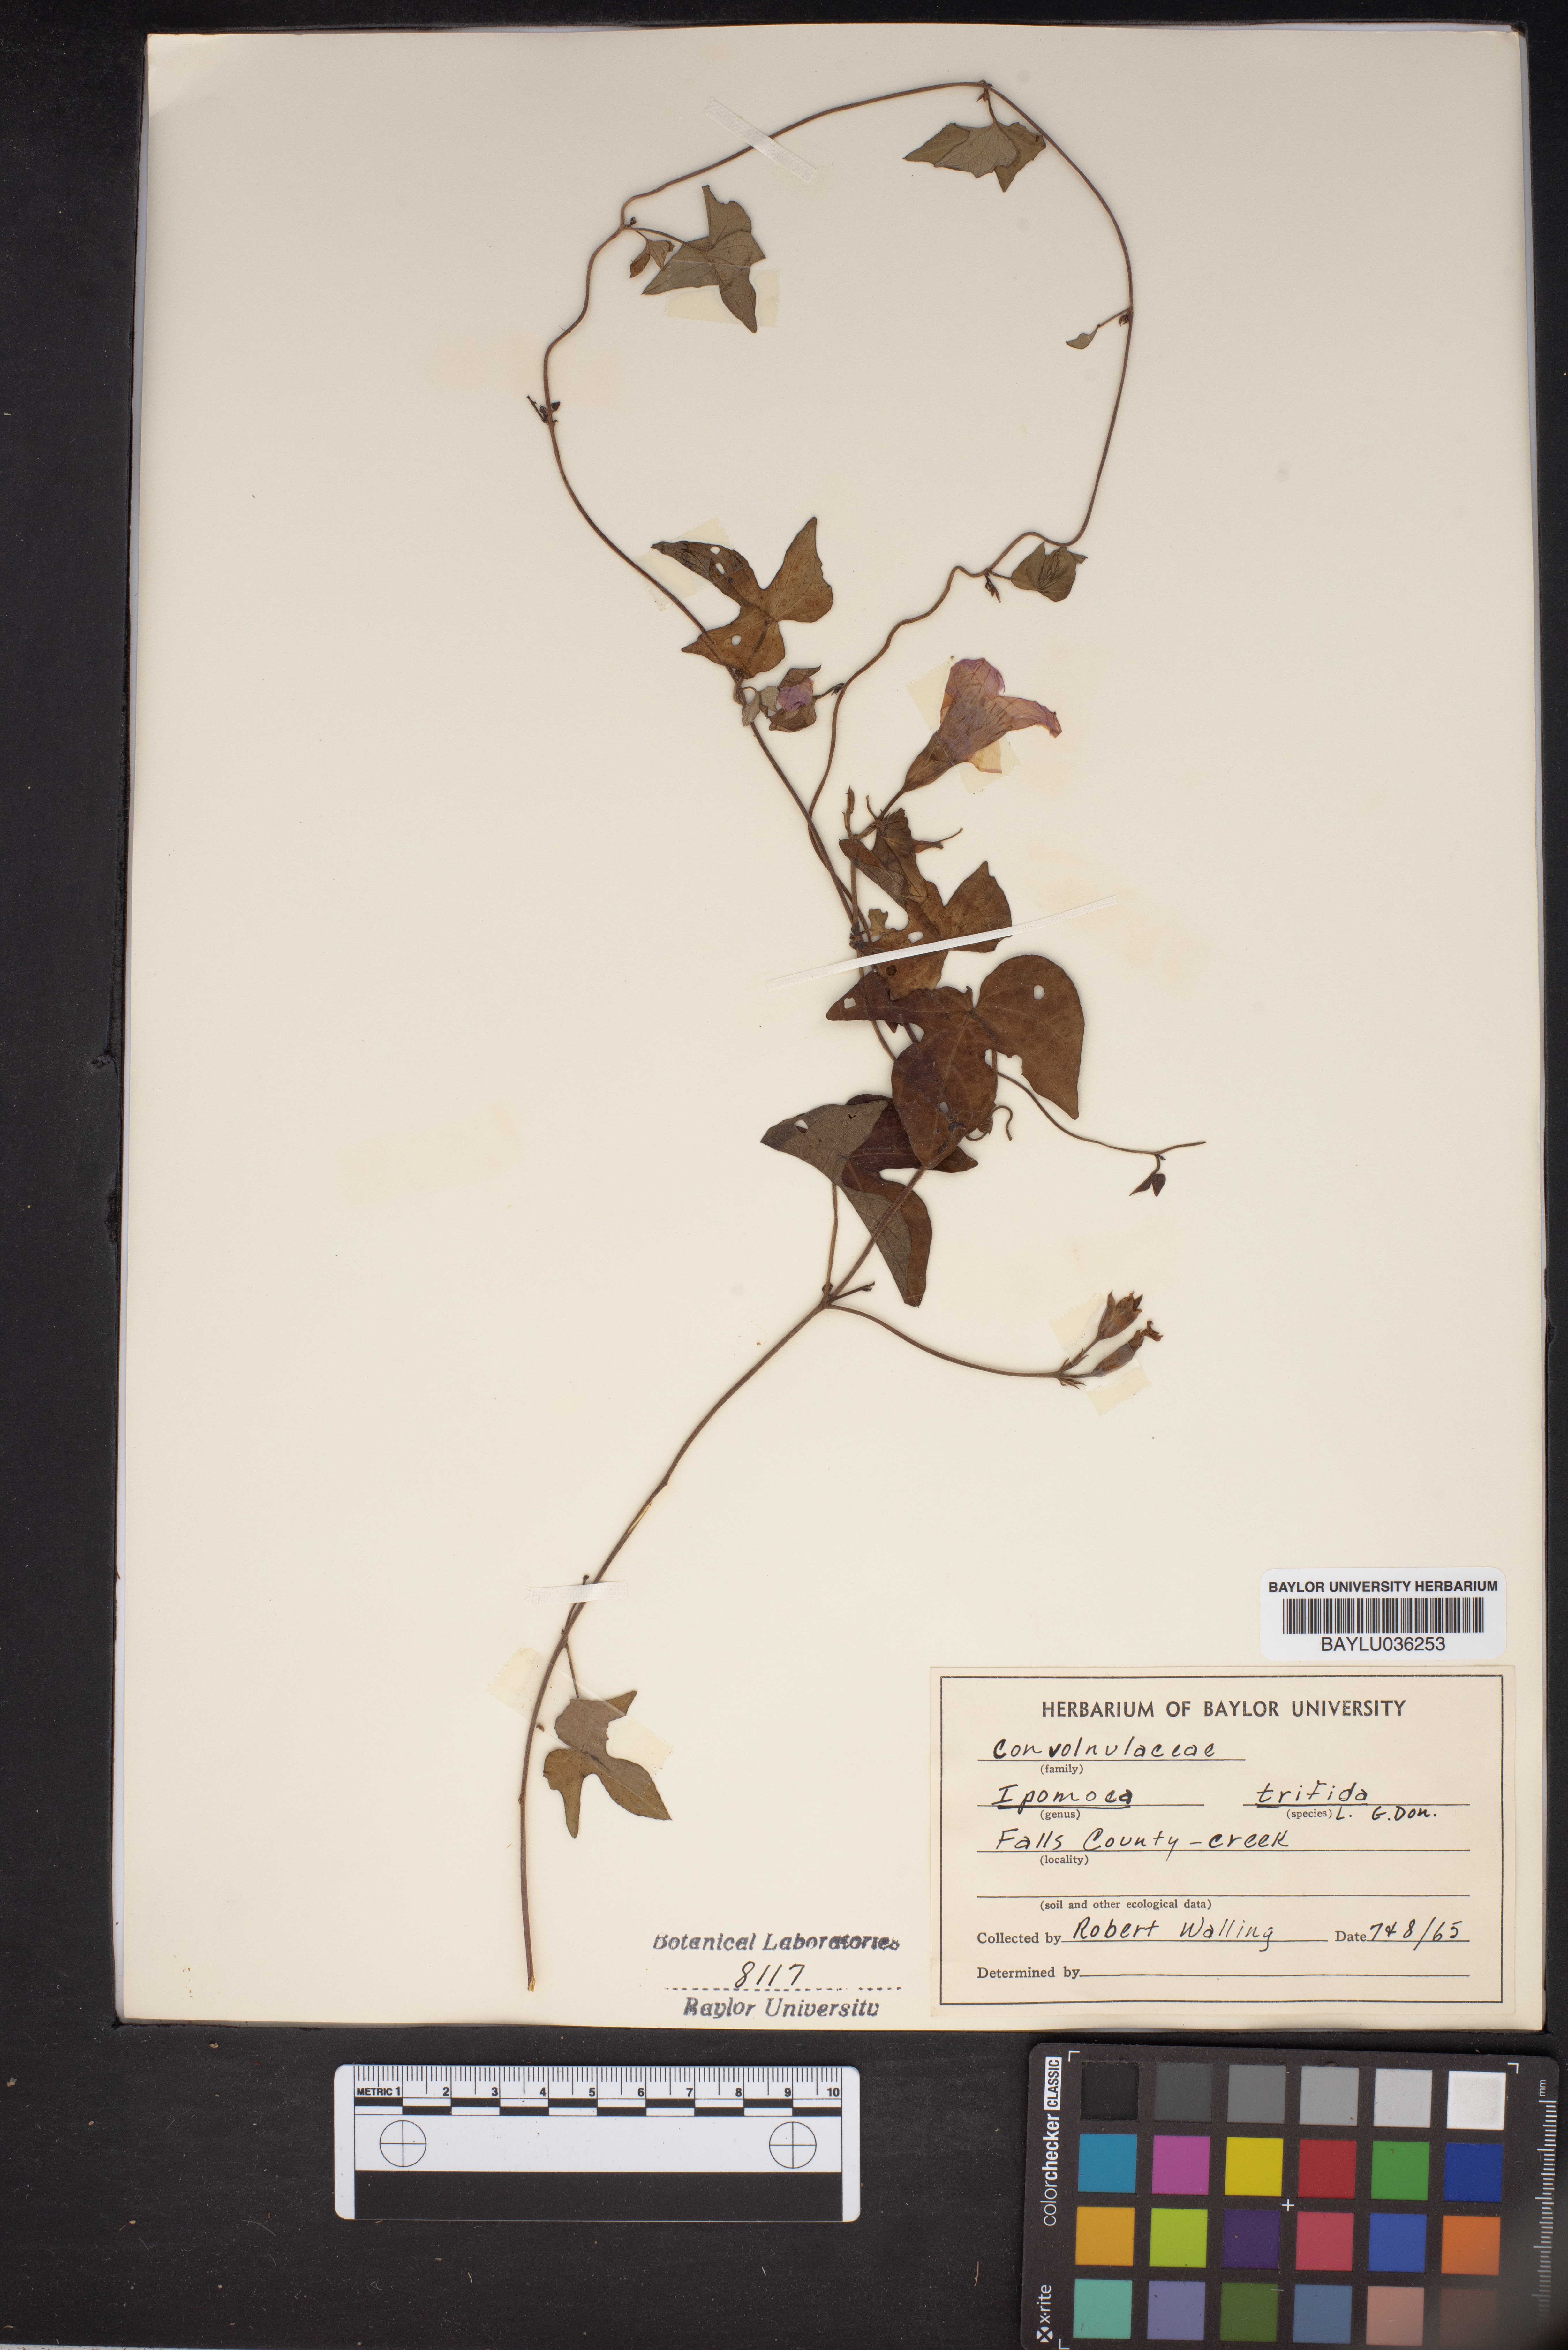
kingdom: Plantae
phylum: Tracheophyta
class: Magnoliopsida
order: Solanales
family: Convolvulaceae
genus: Ipomoea
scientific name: Ipomoea trifida
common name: Cotton morningglory
